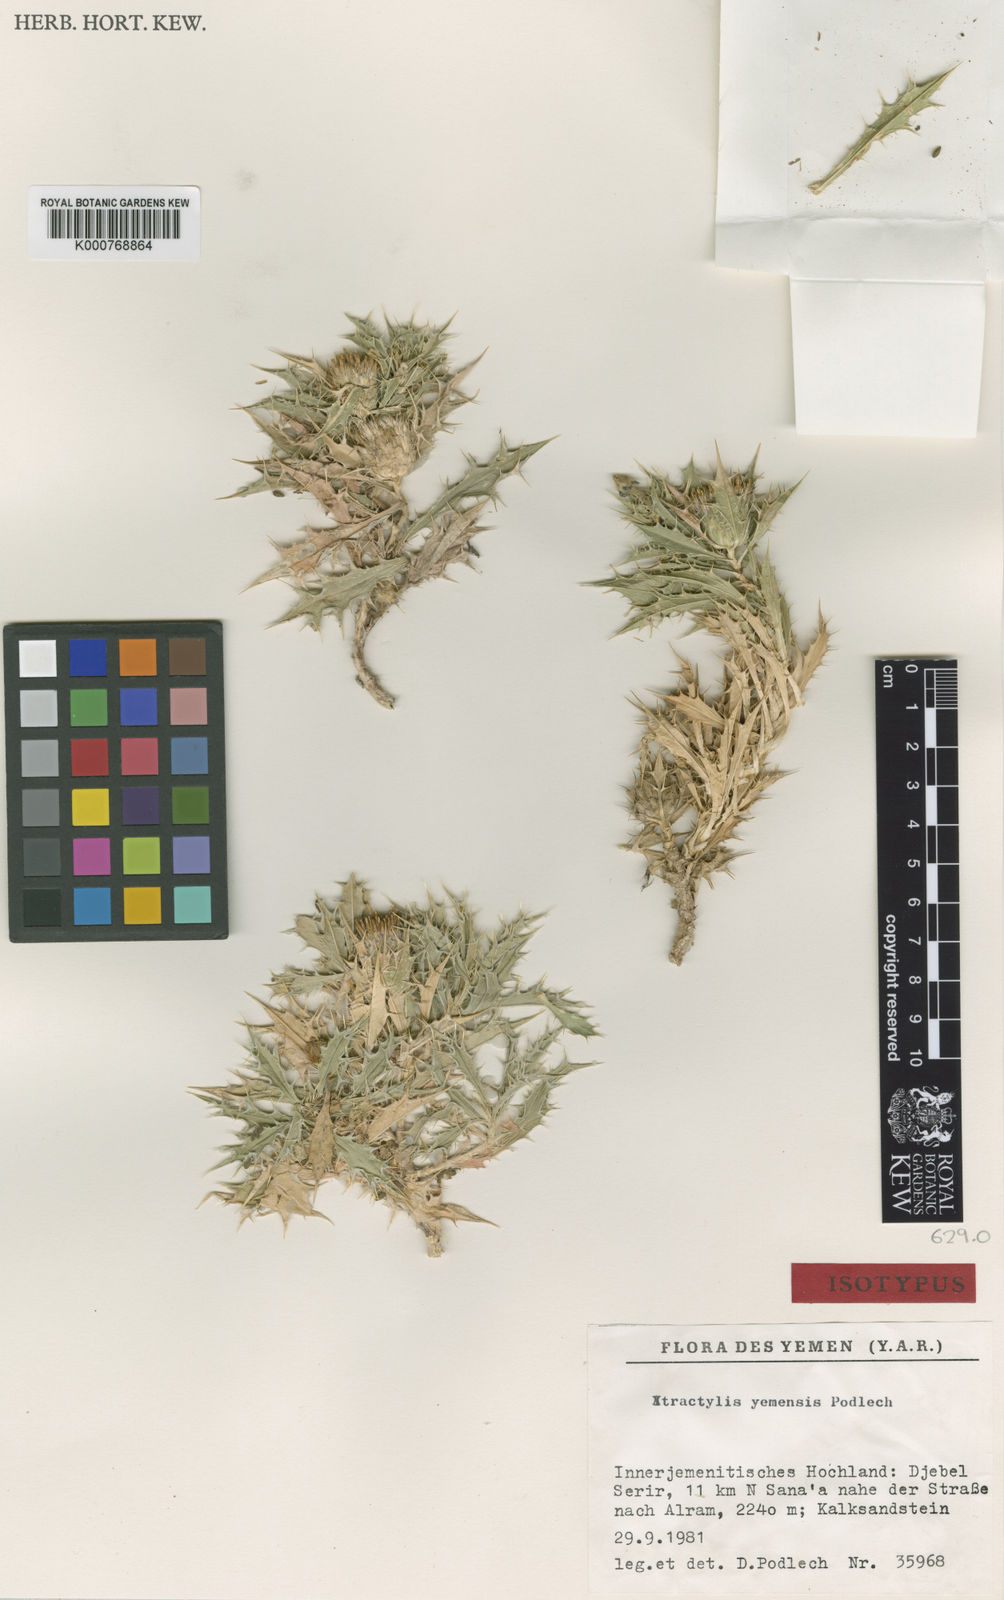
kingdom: Plantae
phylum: Tracheophyta
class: Magnoliopsida
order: Asterales
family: Asteraceae
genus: Atractylis
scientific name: Atractylis yemensis
